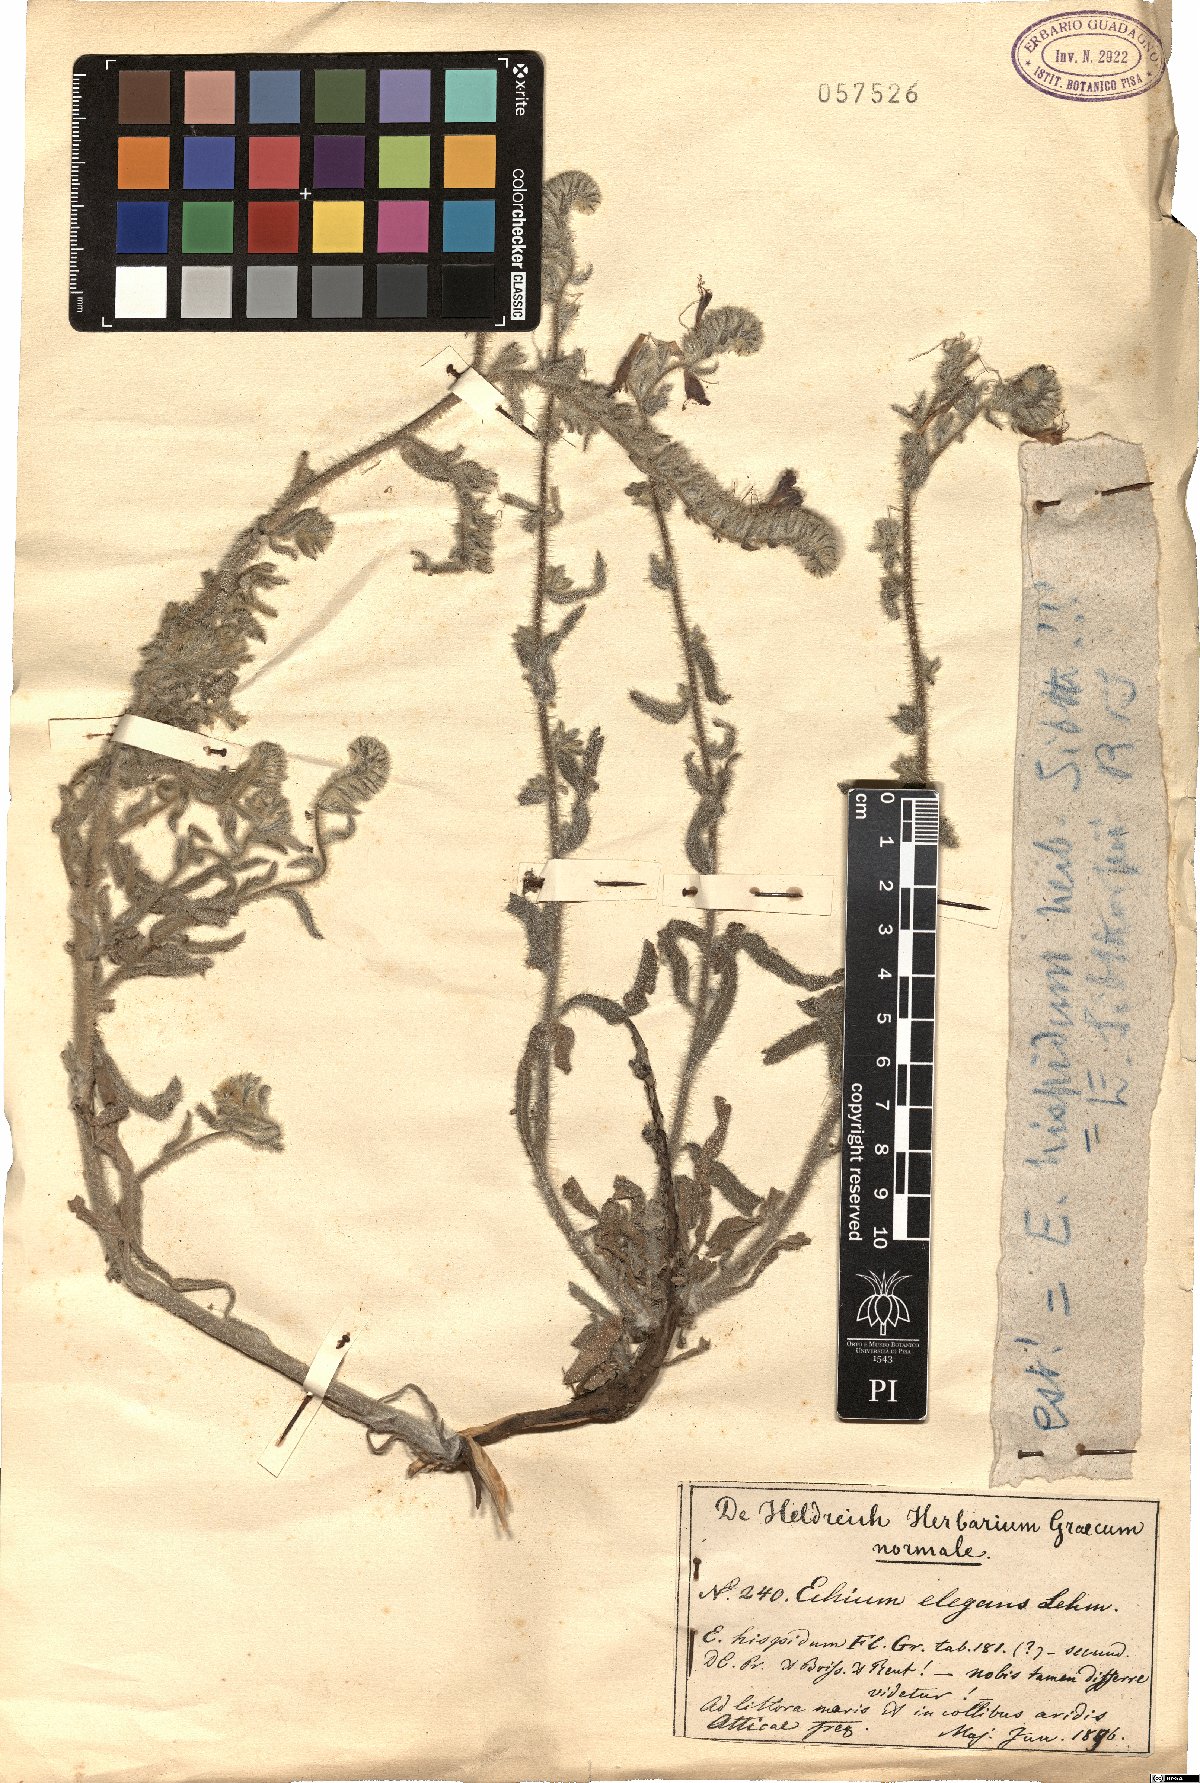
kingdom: Plantae
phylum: Tracheophyta
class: Magnoliopsida
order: Boraginales
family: Boraginaceae
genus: Echium
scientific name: Echium angustifolium
